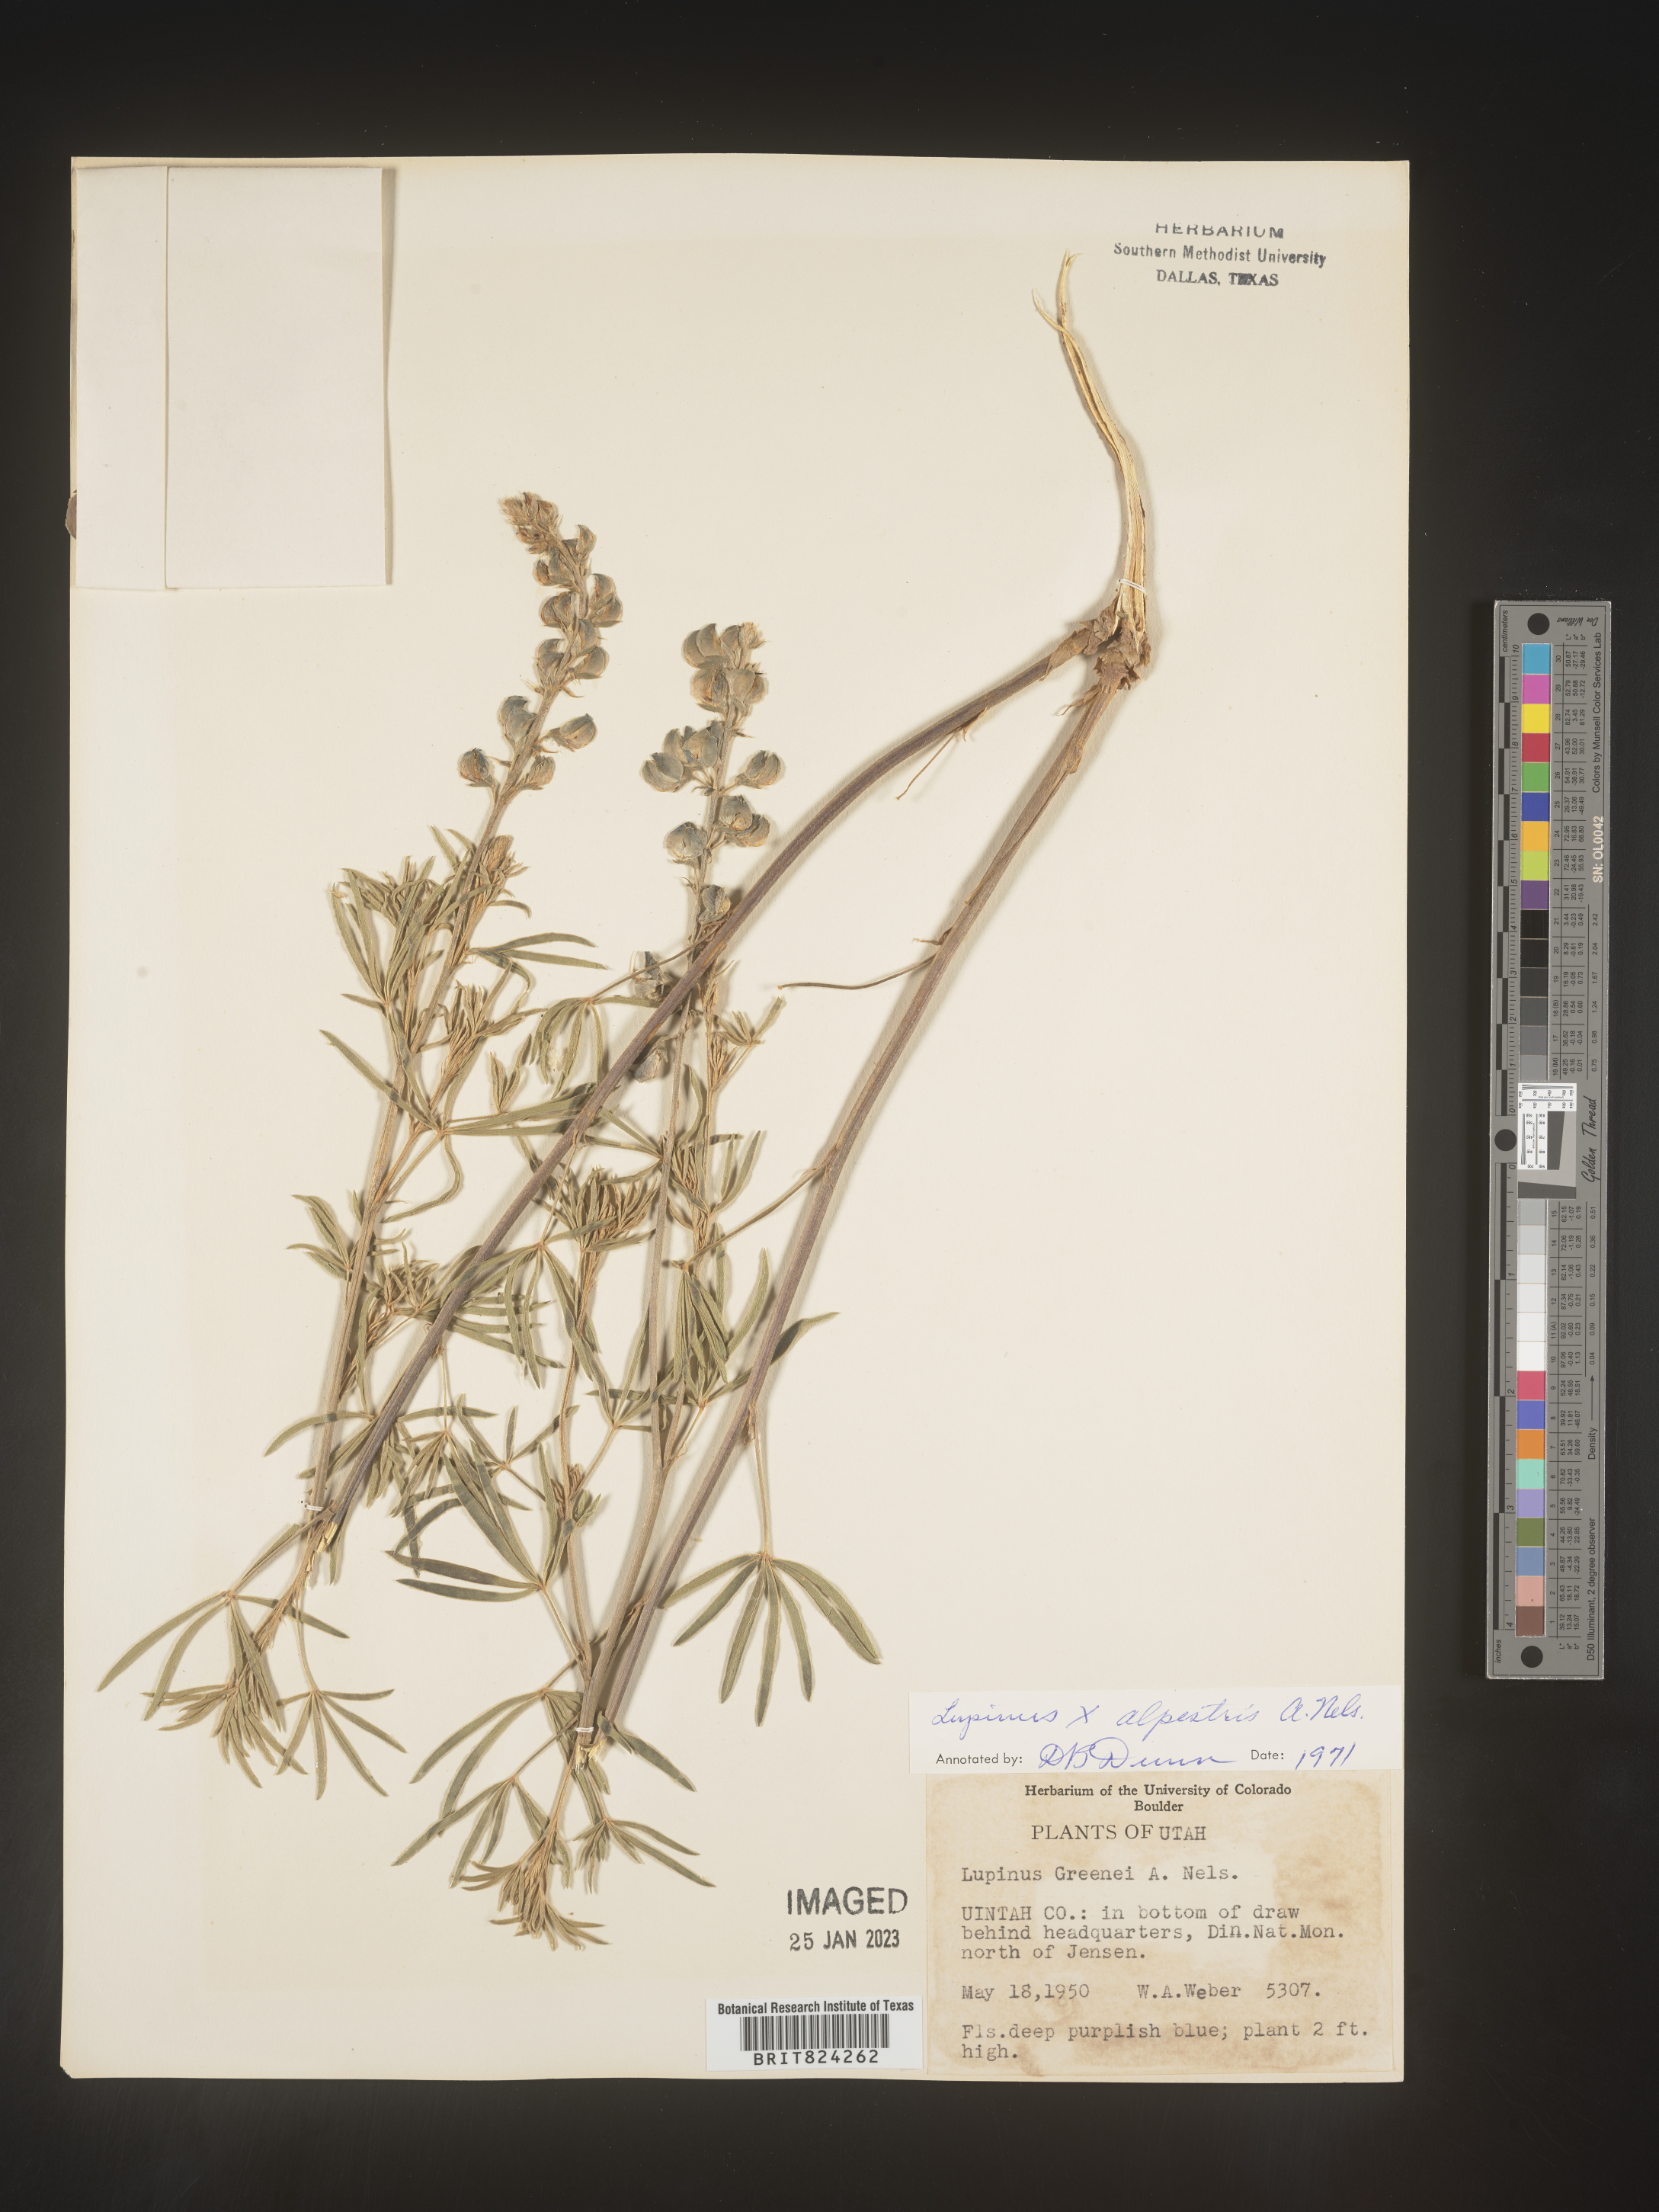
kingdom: Plantae
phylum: Tracheophyta
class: Magnoliopsida
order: Fabales
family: Fabaceae
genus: Lupinus
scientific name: Lupinus
